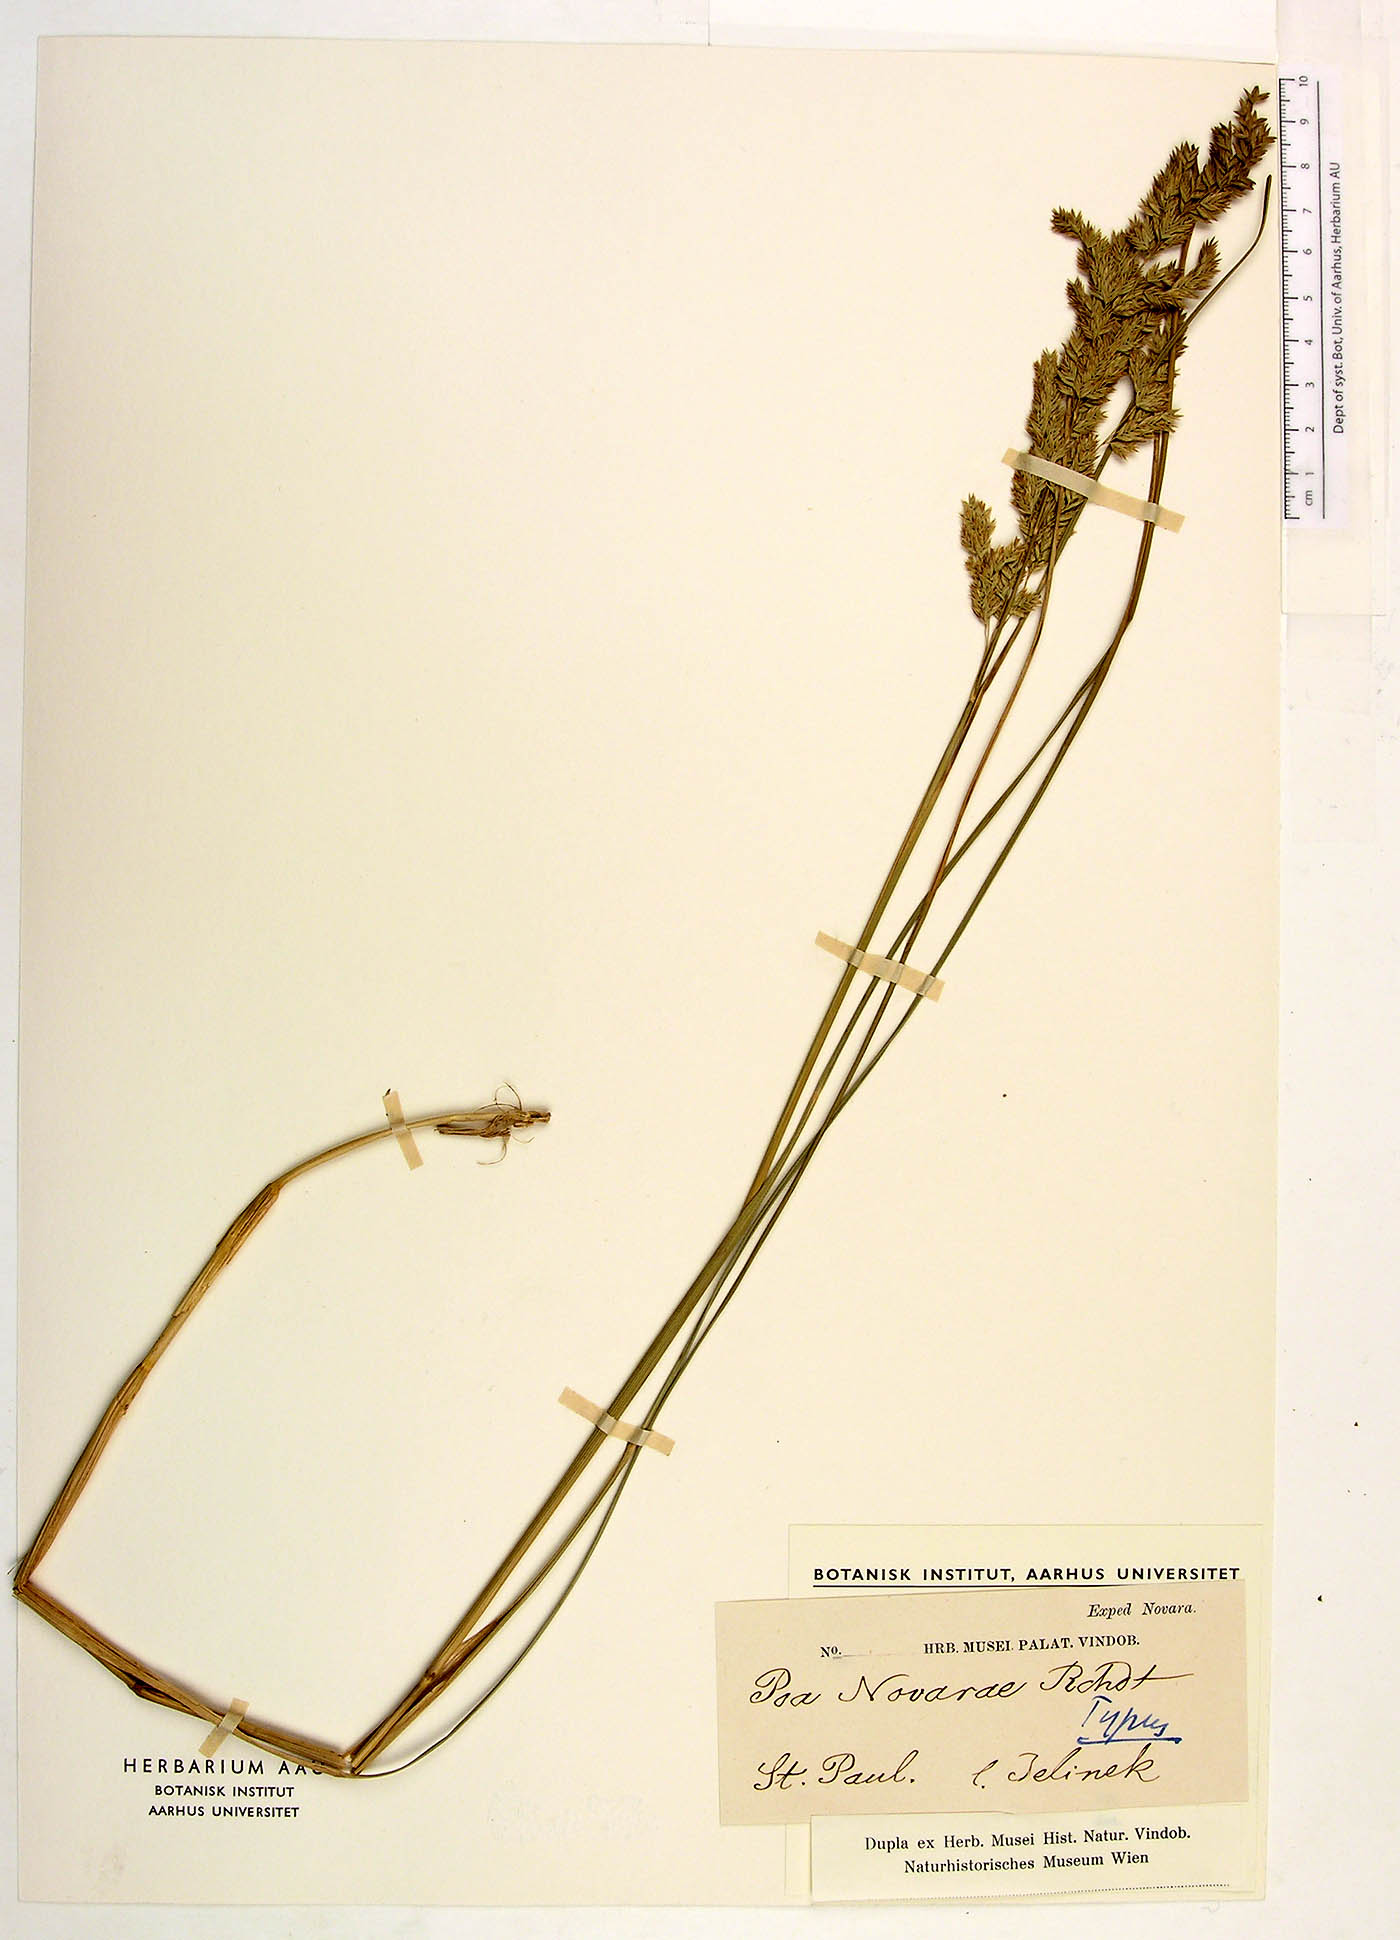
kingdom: Plantae
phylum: Tracheophyta
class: Liliopsida
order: Poales
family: Poaceae
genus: Poa
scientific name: Poa novarae
